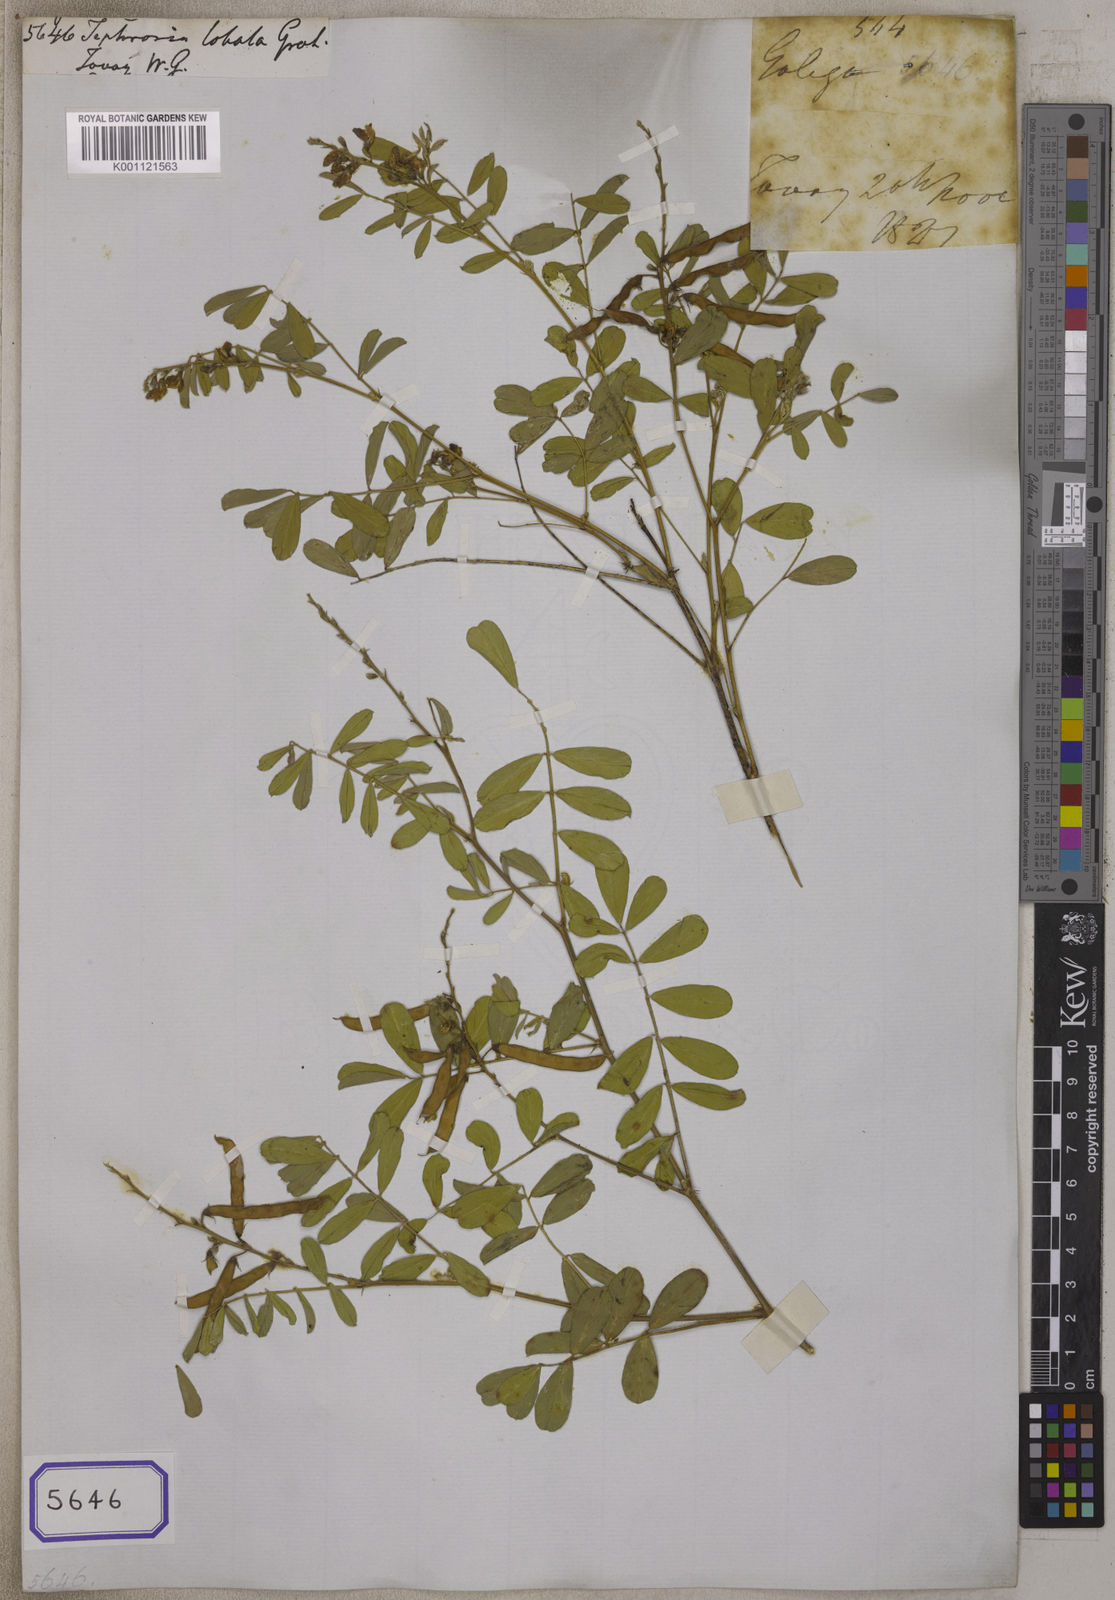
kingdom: Plantae
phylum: Tracheophyta
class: Magnoliopsida
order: Fabales
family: Fabaceae
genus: Tephrosia
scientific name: Tephrosia purpurea
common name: Fishpoison
